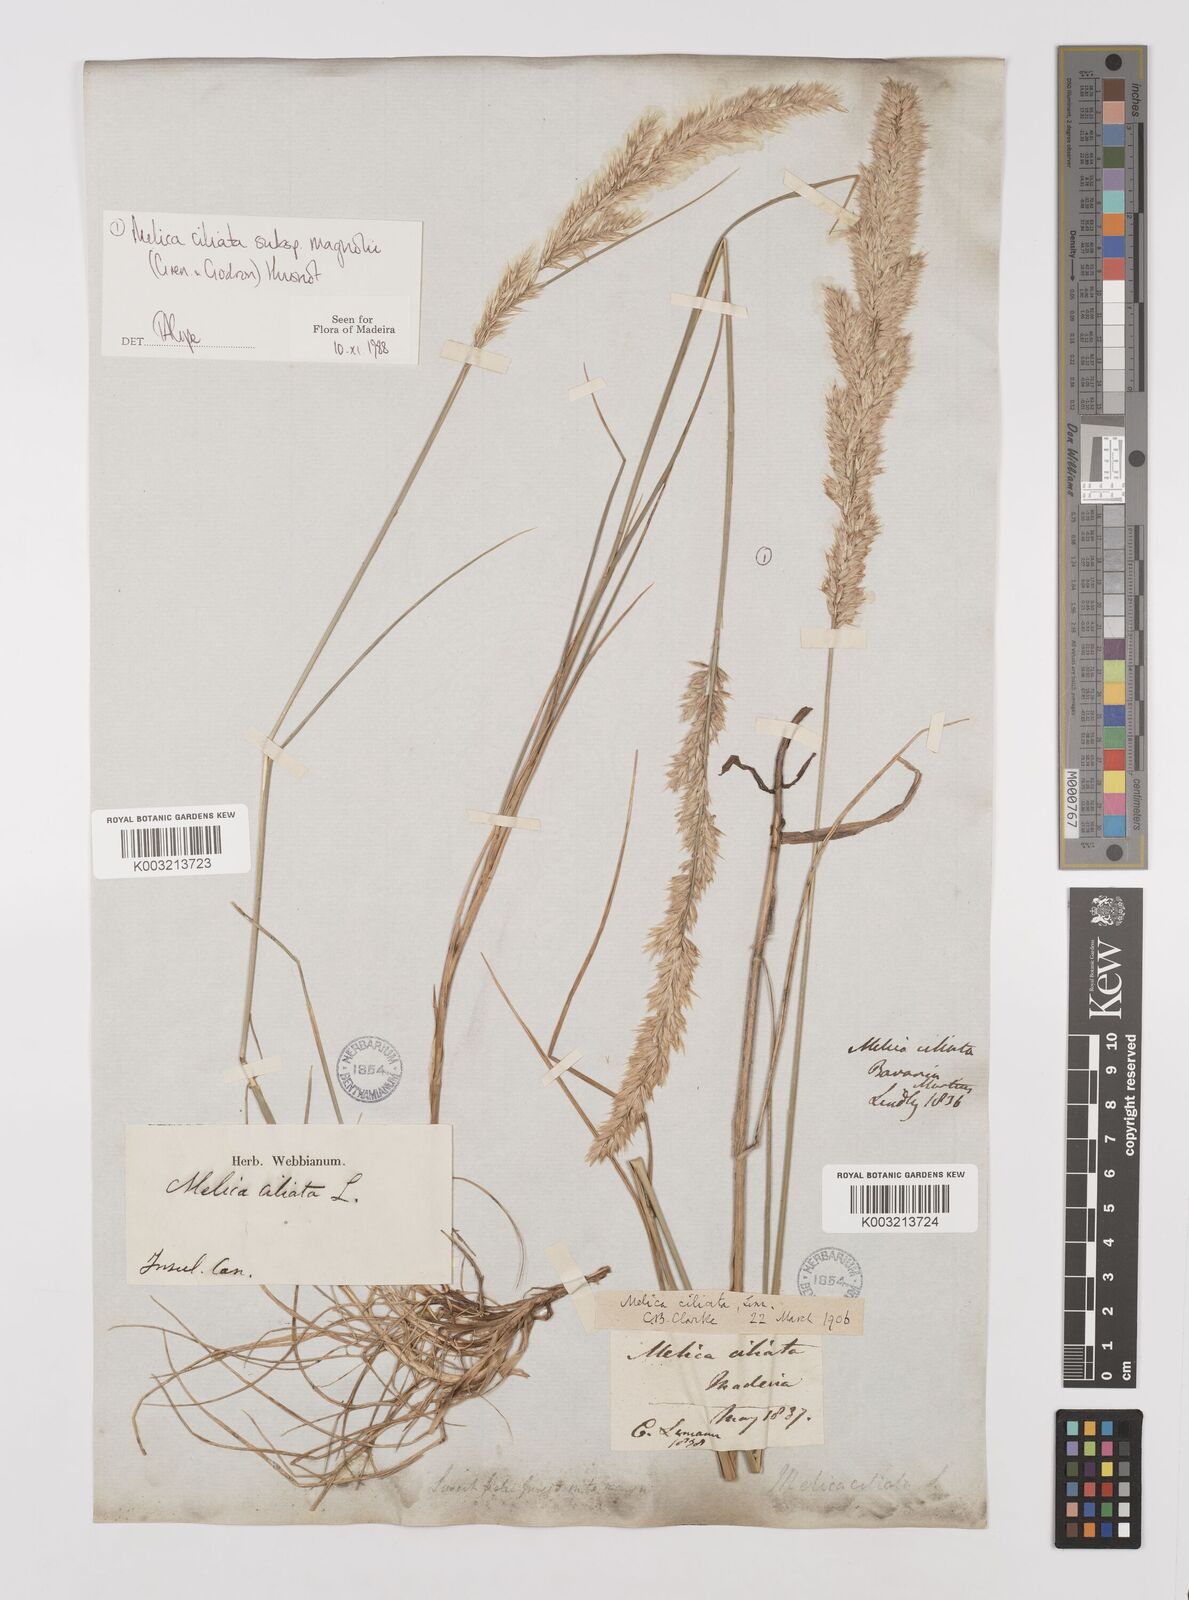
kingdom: Plantae
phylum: Tracheophyta
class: Liliopsida
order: Poales
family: Poaceae
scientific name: Poaceae
